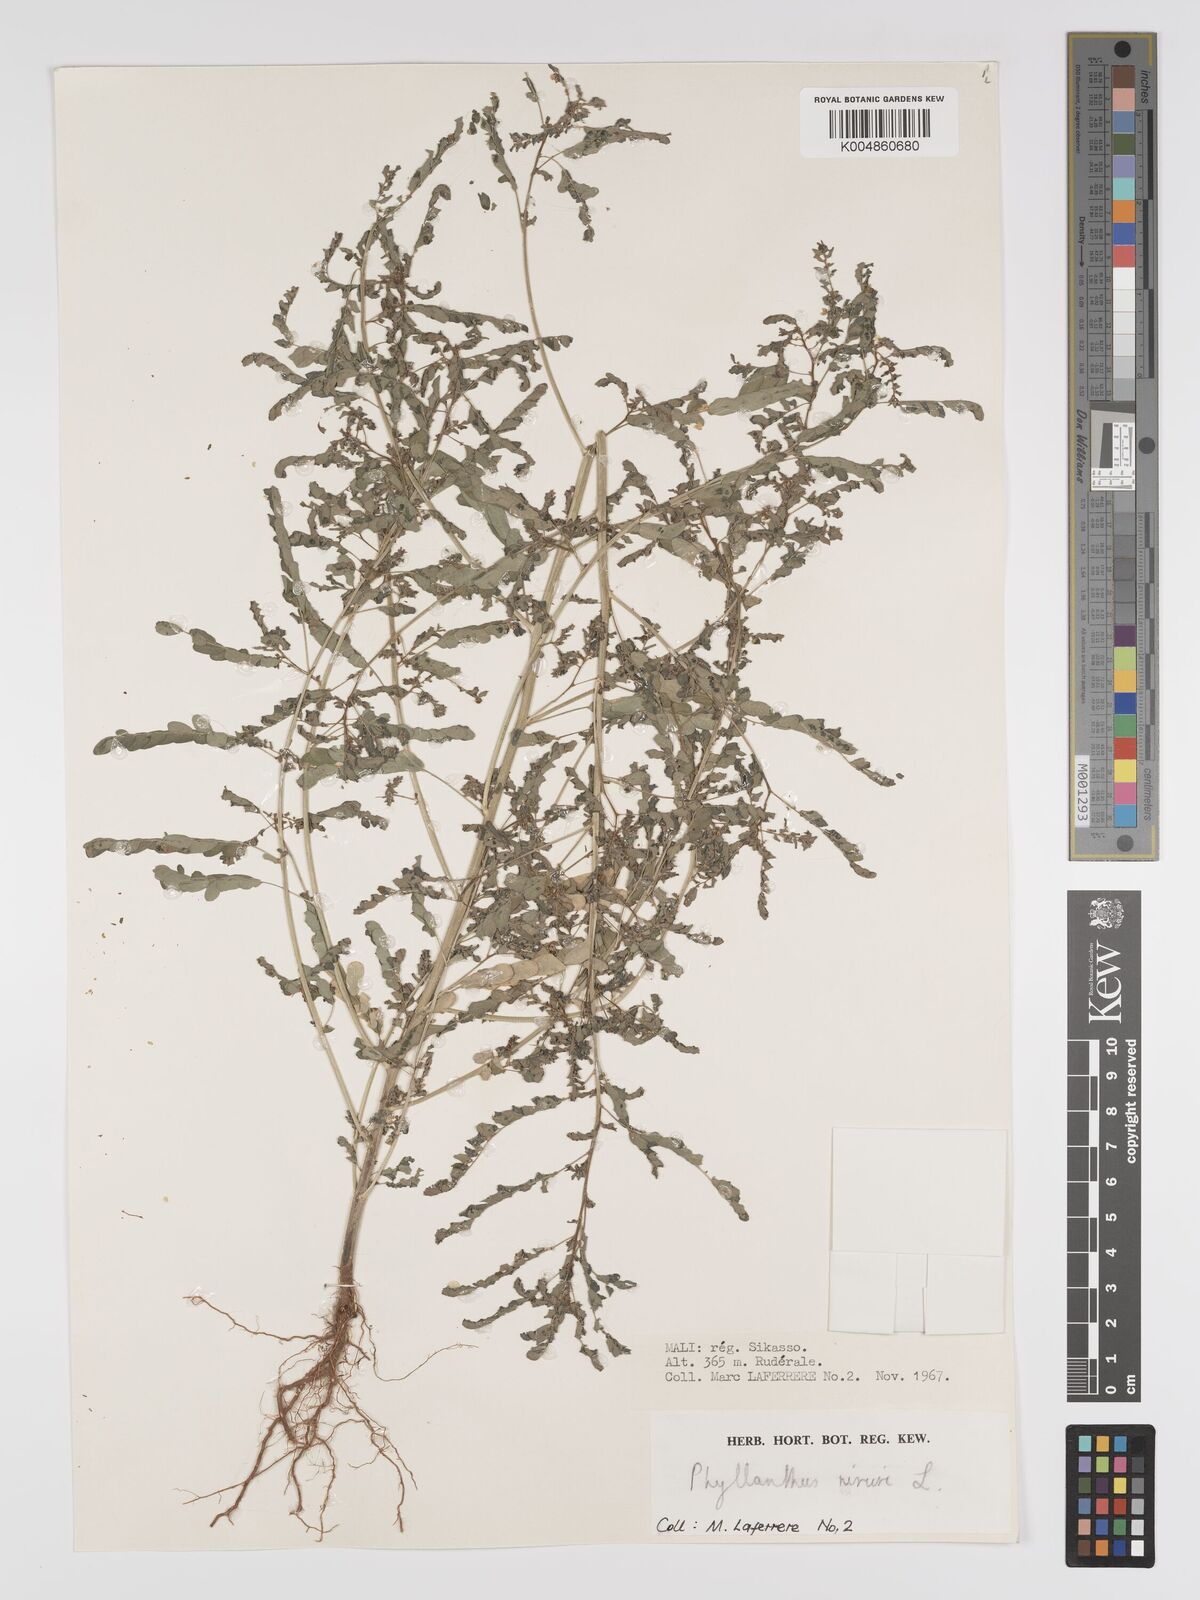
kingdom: Plantae
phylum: Tracheophyta
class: Magnoliopsida
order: Malpighiales
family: Phyllanthaceae
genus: Phyllanthus
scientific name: Phyllanthus fraternus
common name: Gulf leaf-flower
